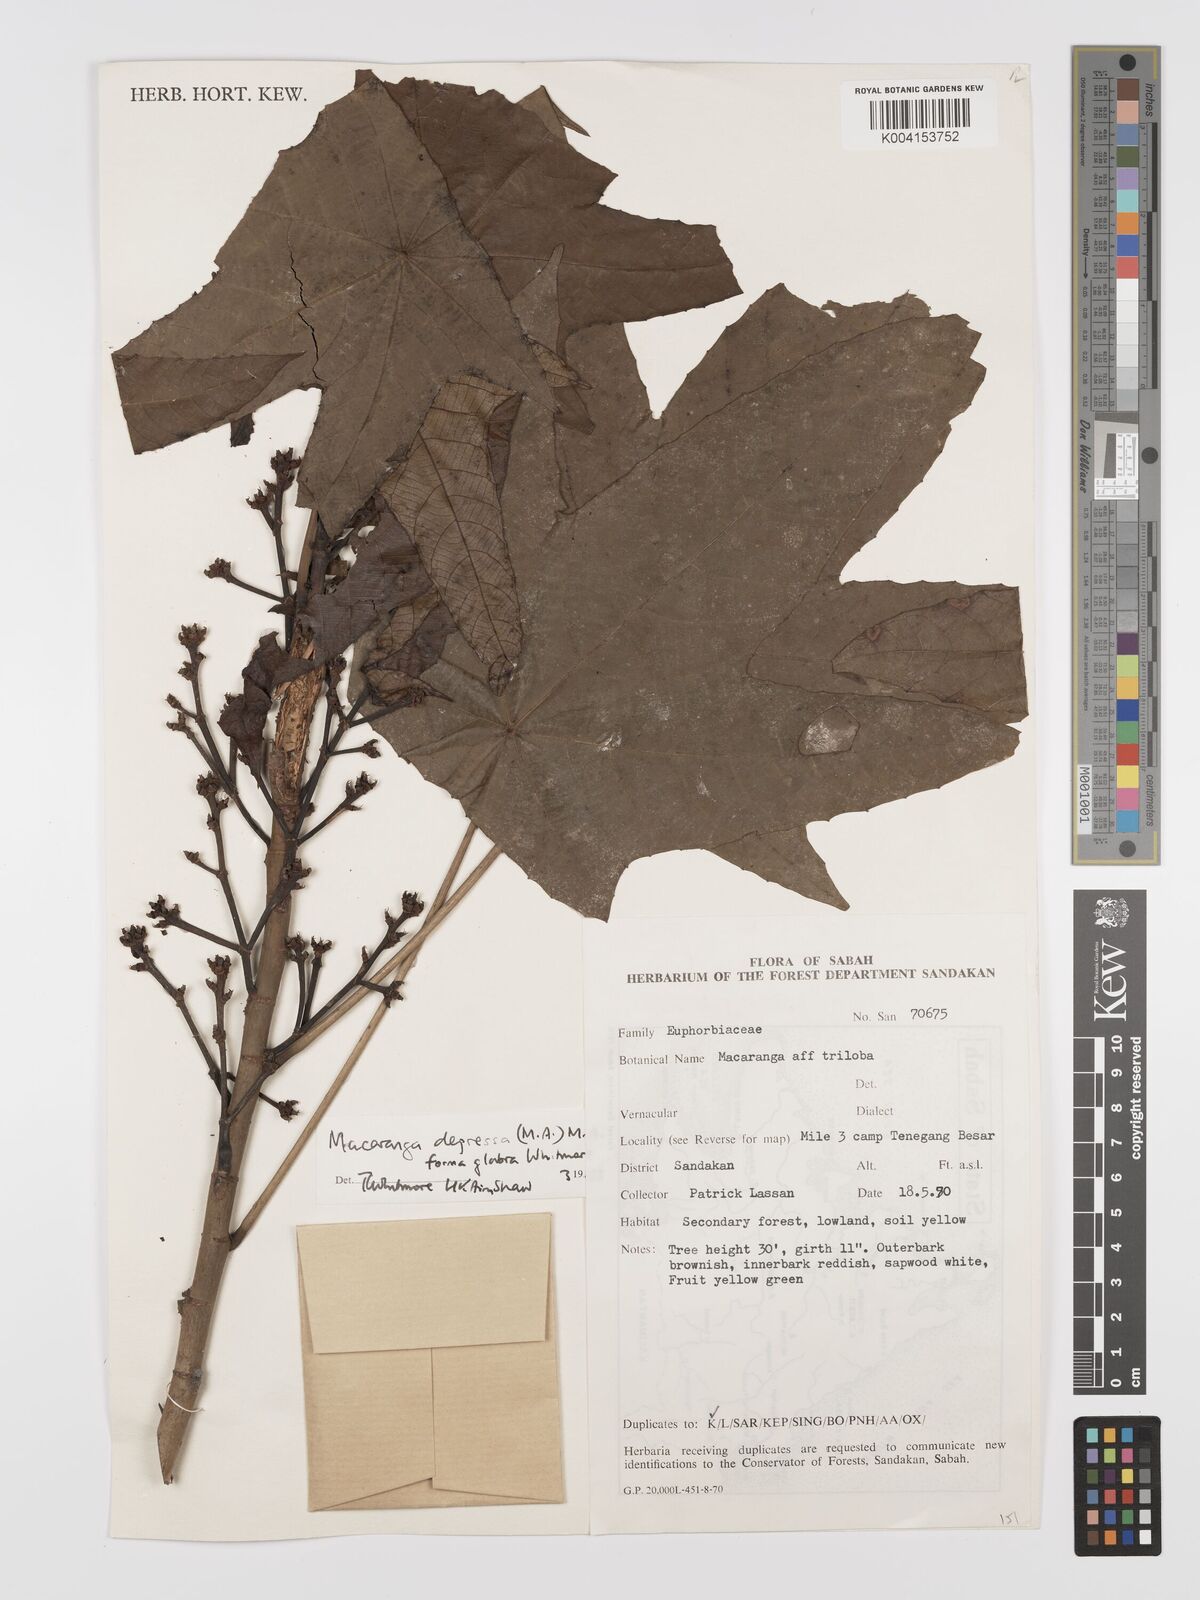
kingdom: Plantae
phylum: Tracheophyta
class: Magnoliopsida
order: Malpighiales
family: Euphorbiaceae
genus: Macaranga
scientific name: Macaranga depressa
